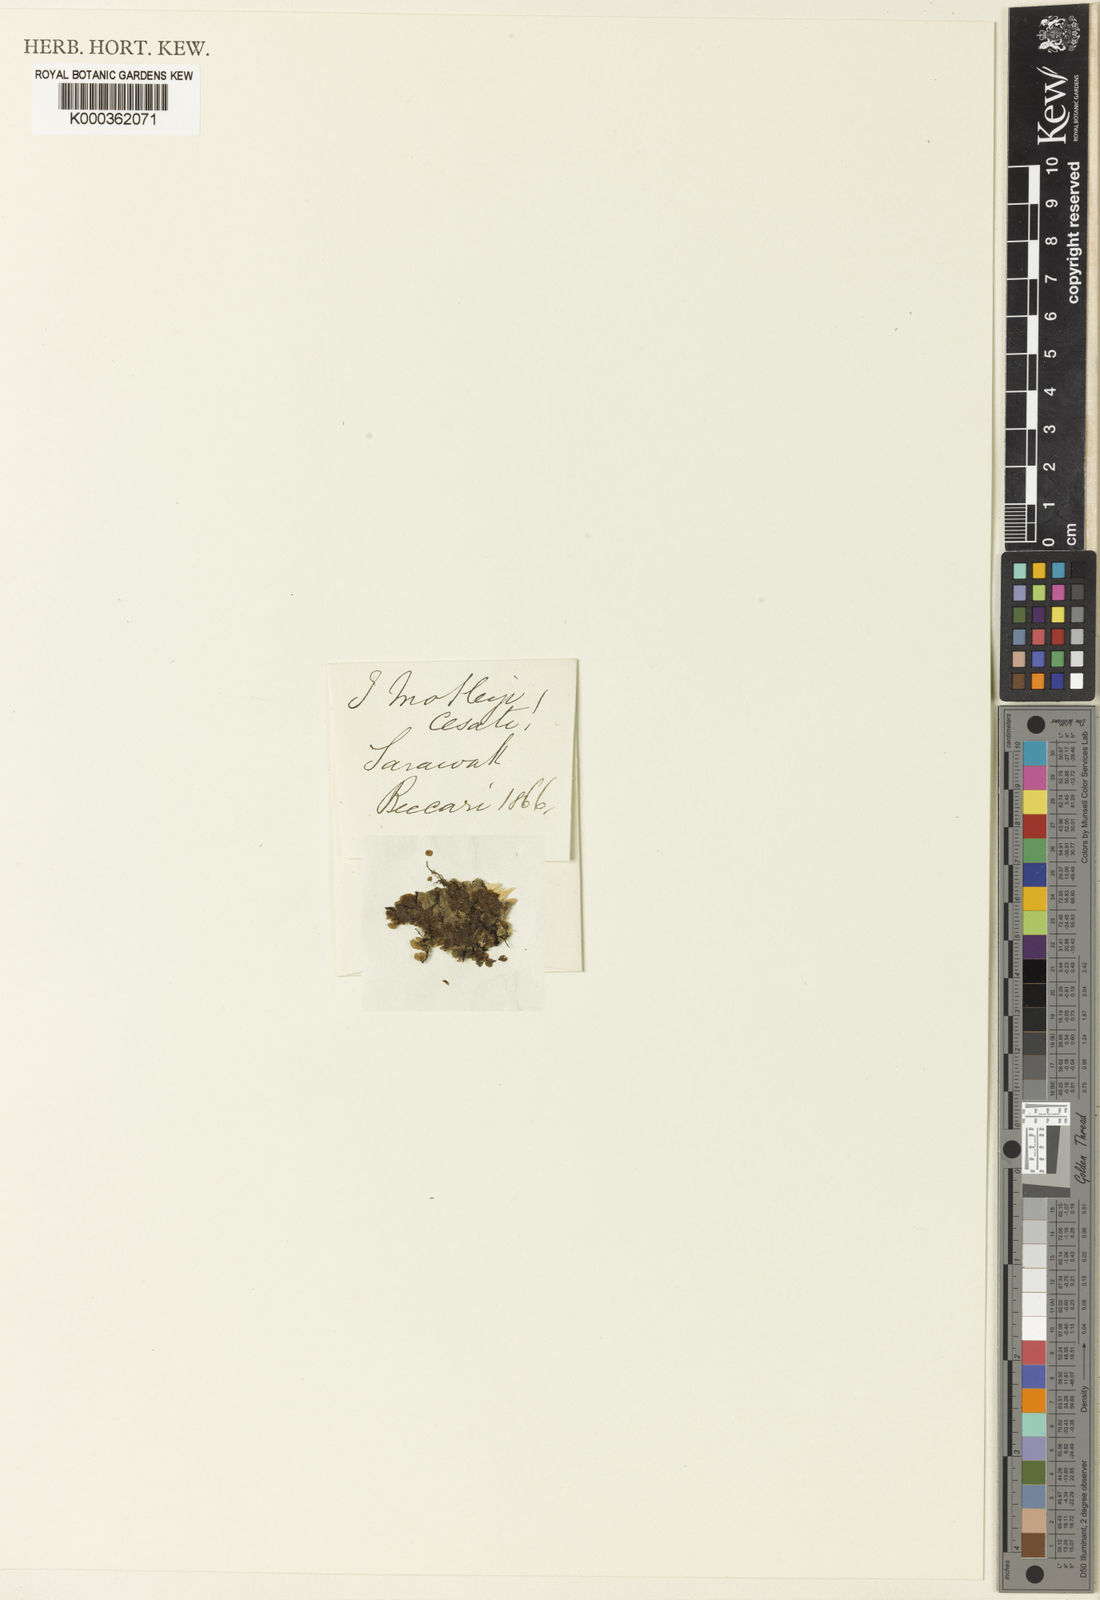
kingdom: Plantae
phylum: Tracheophyta
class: Polypodiopsida
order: Hymenophyllales
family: Hymenophyllaceae
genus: Trichomanes
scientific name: Trichomanes
